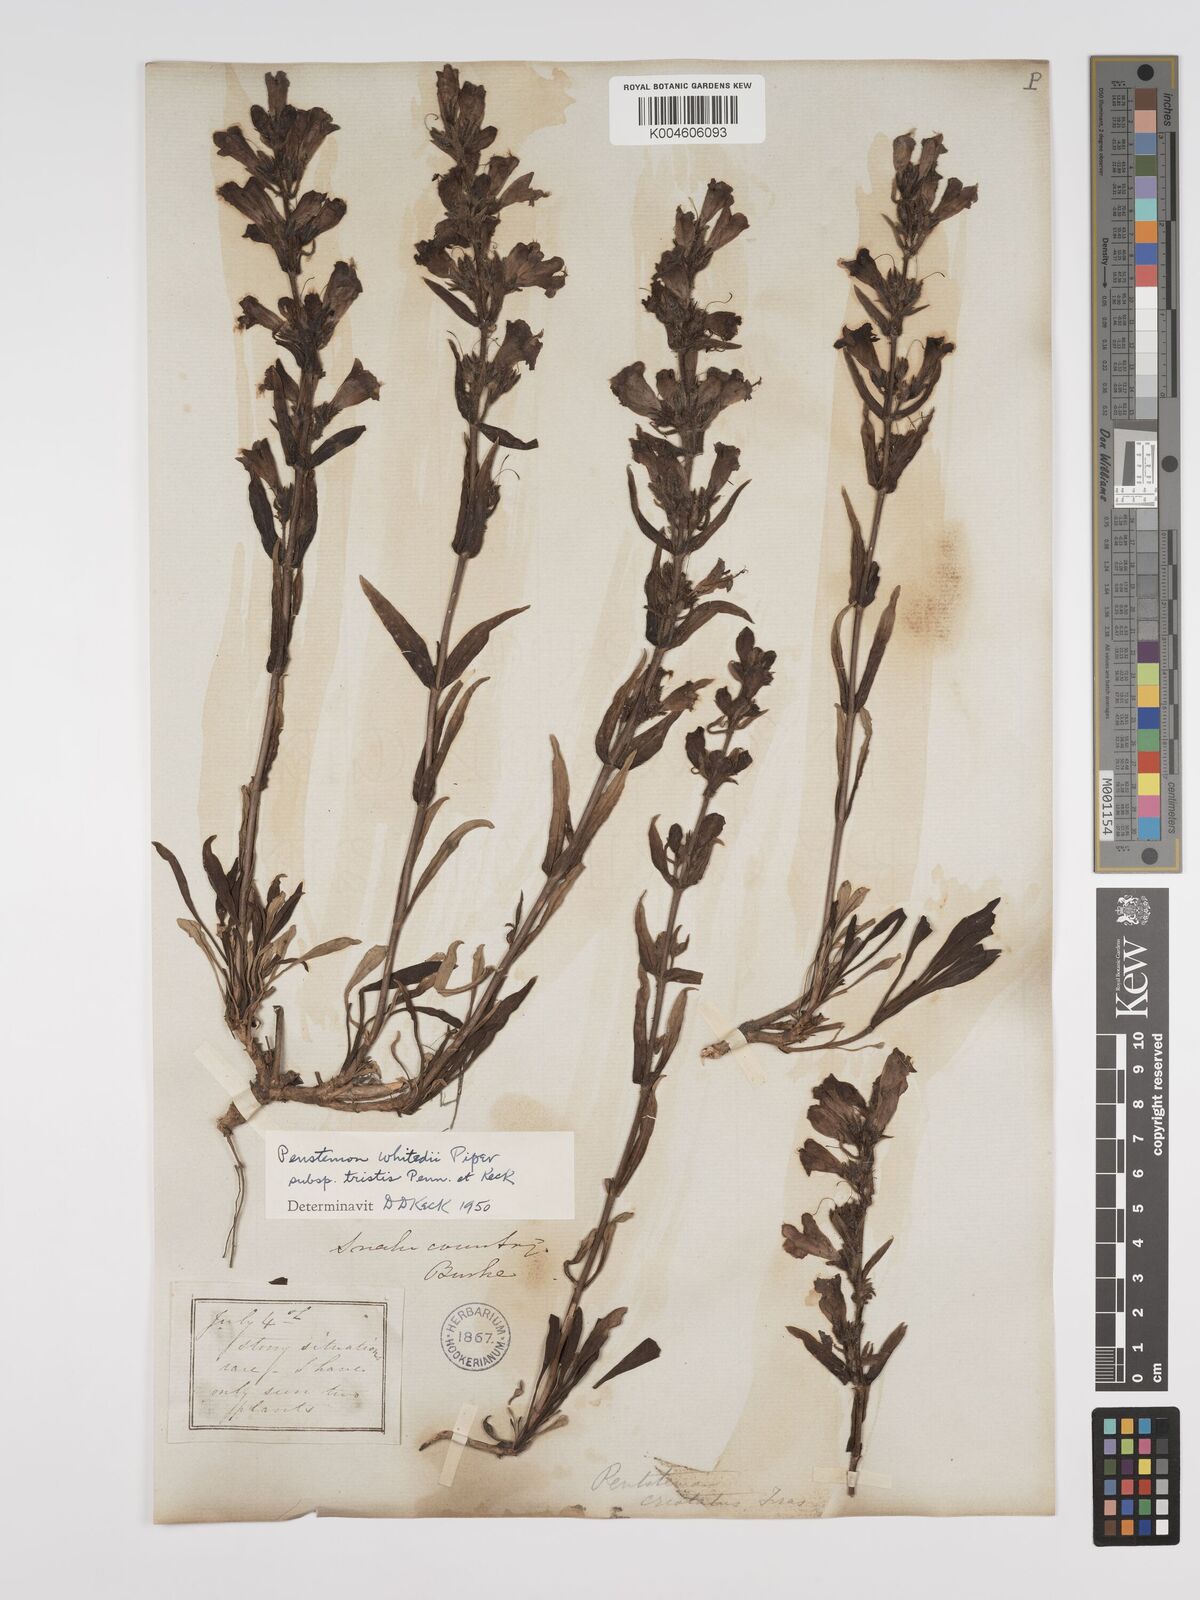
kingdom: Plantae
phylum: Tracheophyta
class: Magnoliopsida
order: Lamiales
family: Plantaginaceae
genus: Penstemon
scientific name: Penstemon eriantherus
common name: Crested beardtongue
